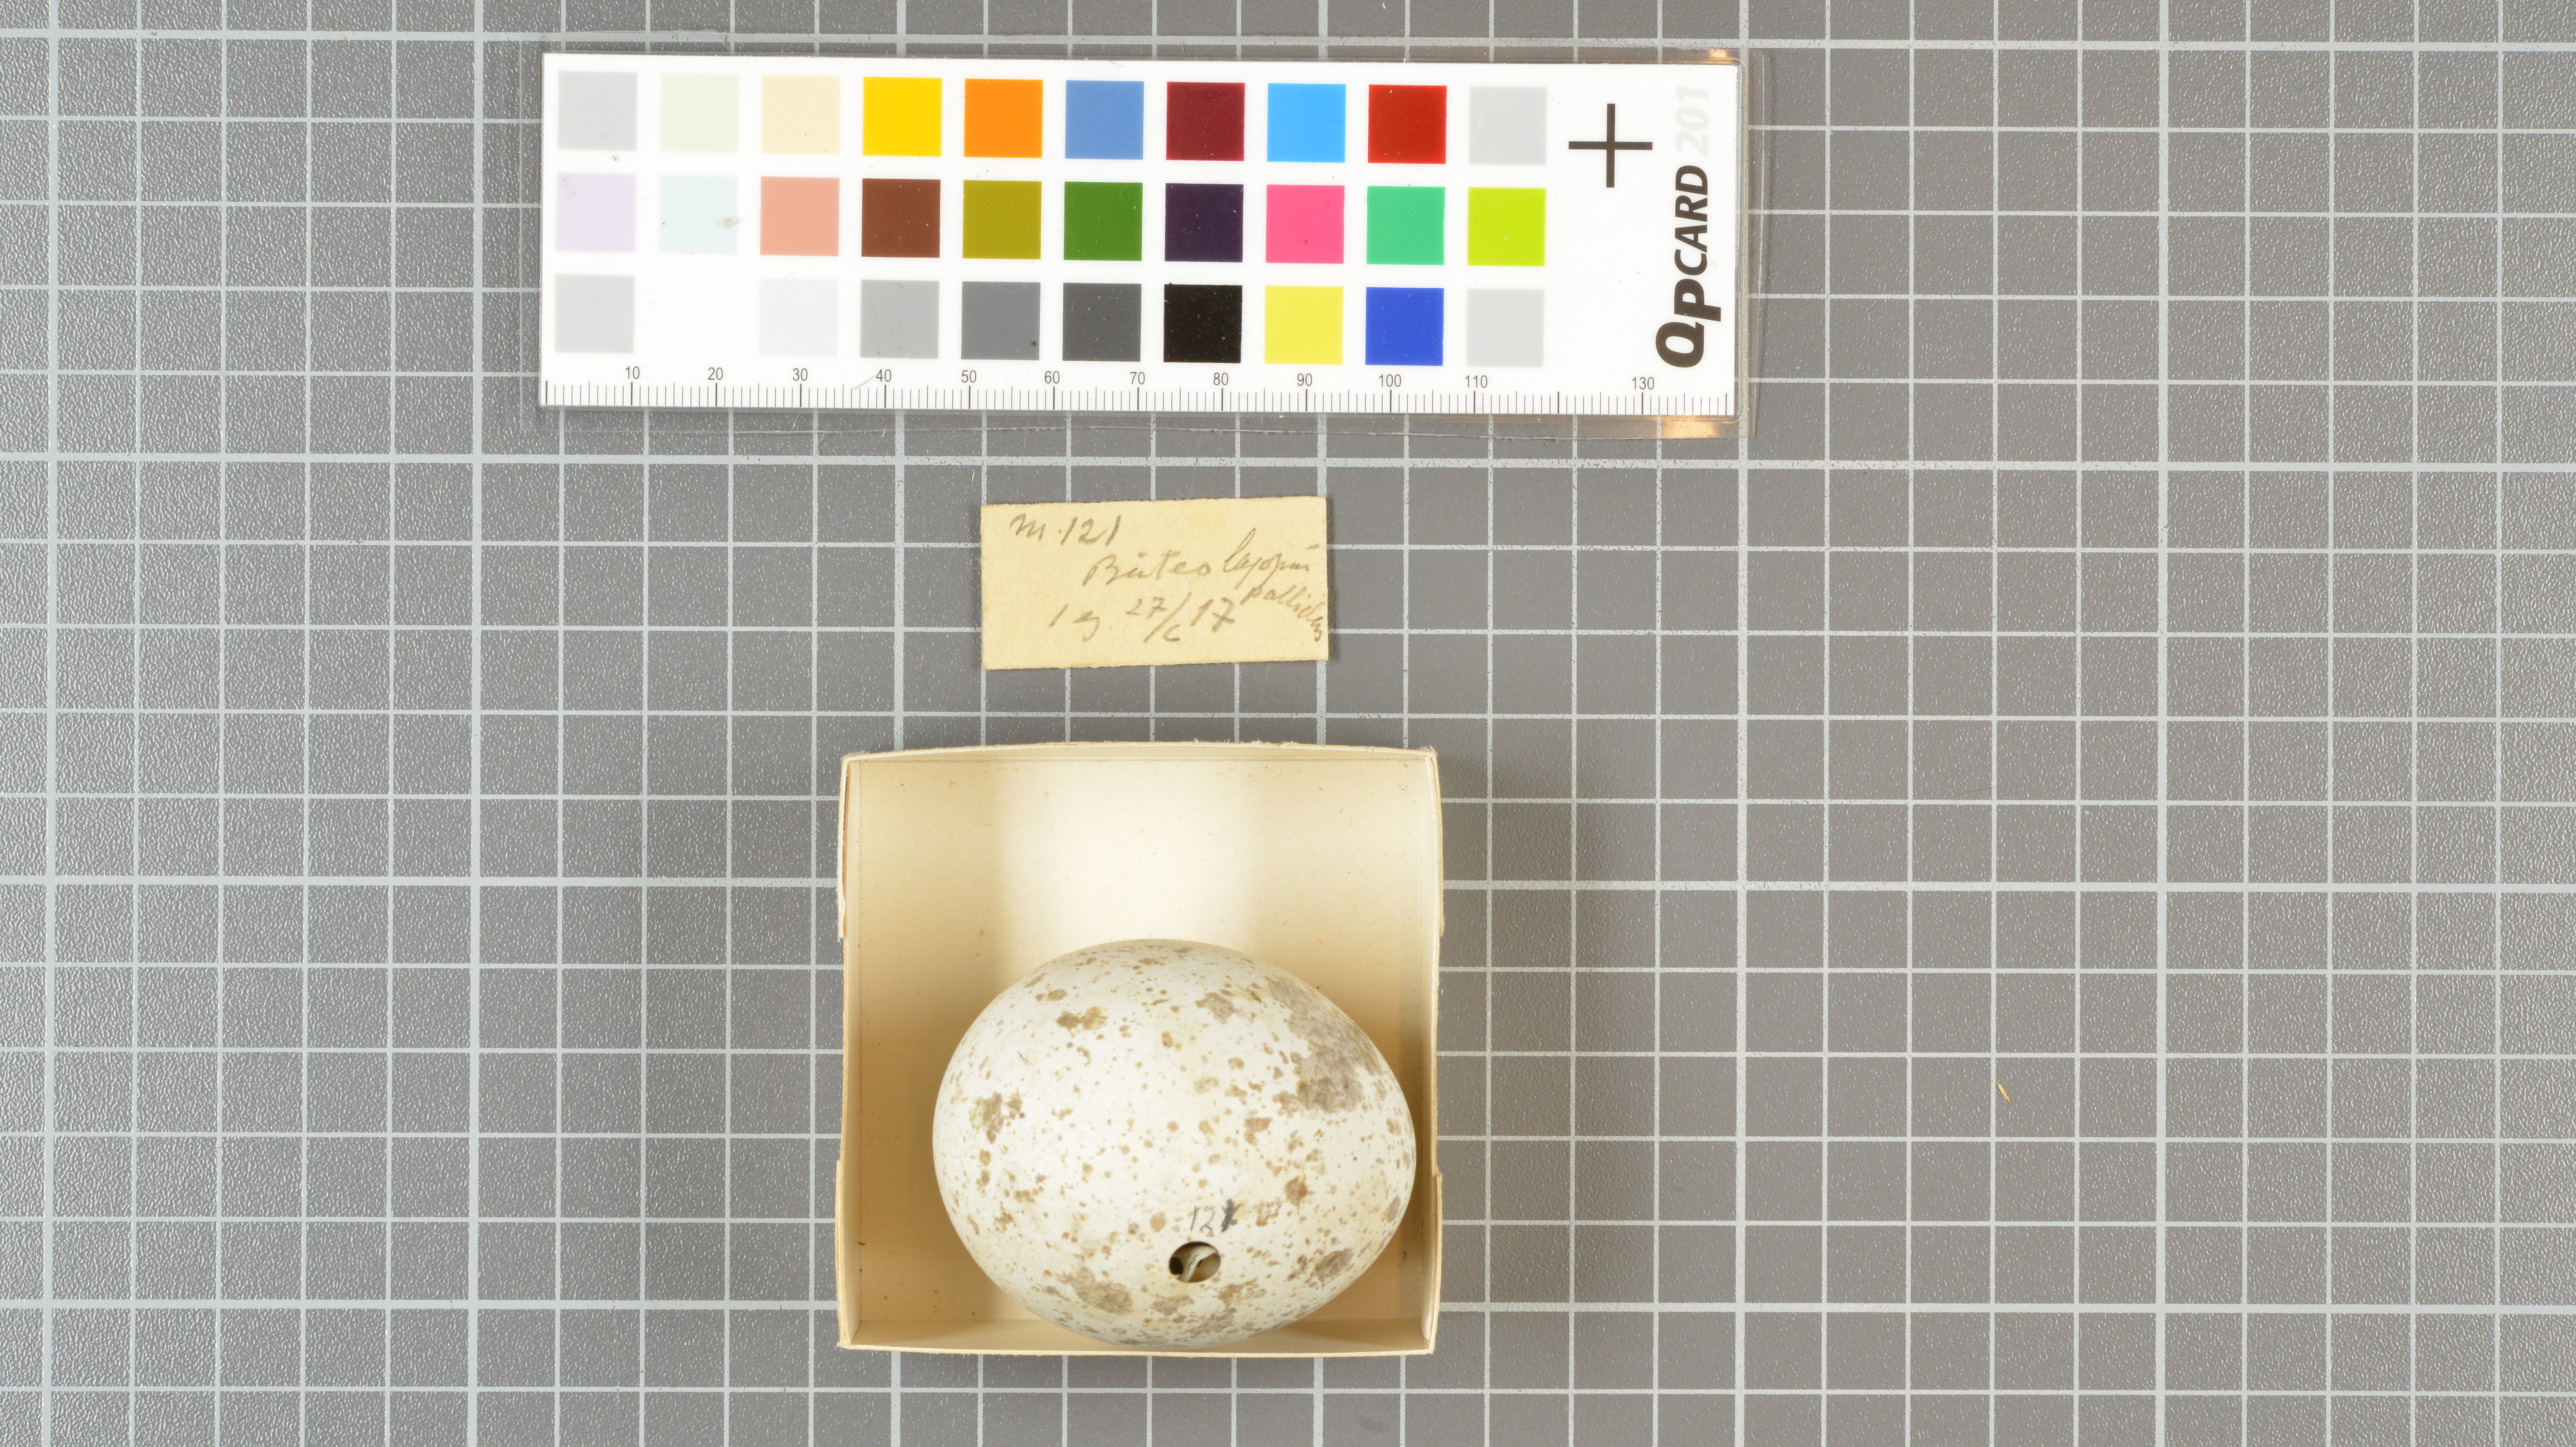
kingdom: Animalia
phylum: Chordata
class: Aves
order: Accipitriformes
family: Accipitridae
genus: Buteo
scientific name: Buteo lagopus
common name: Rough-legged buzzard
